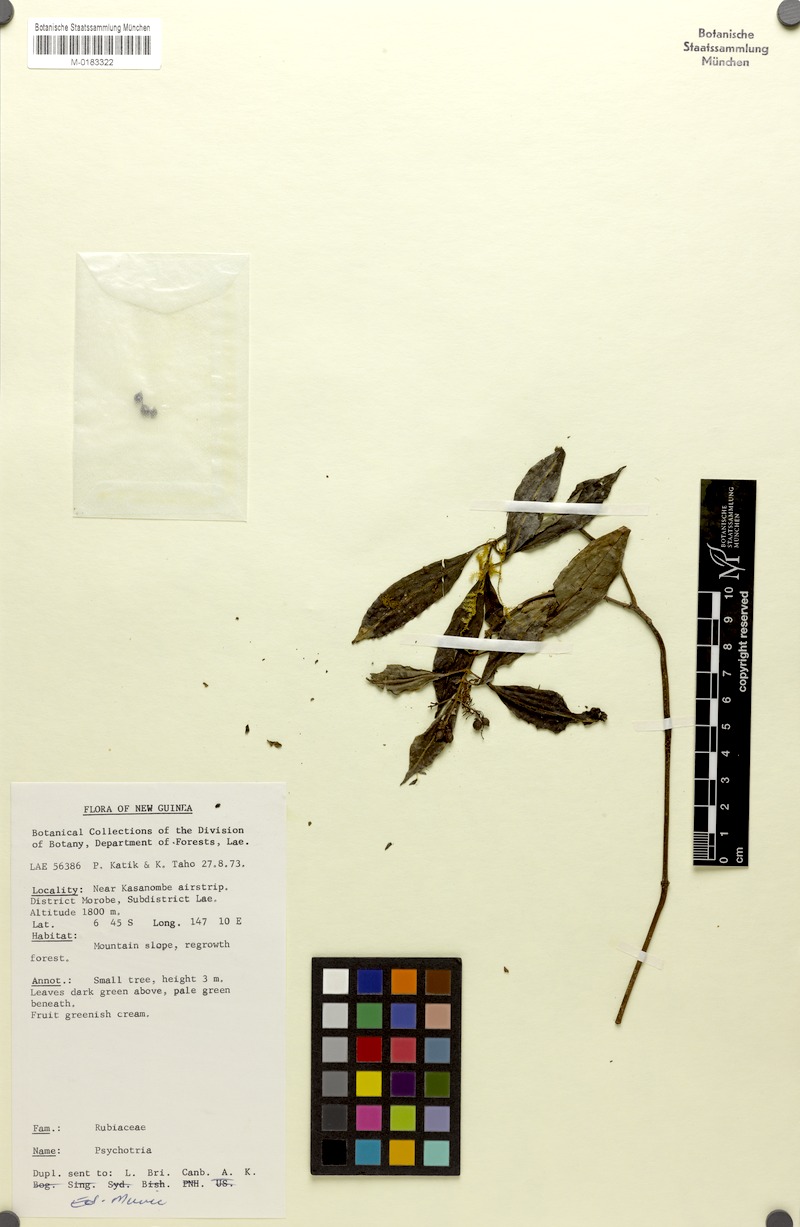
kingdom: Plantae
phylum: Tracheophyta
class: Magnoliopsida
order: Gentianales
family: Rubiaceae
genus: Psychotria
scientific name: Psychotria valetoniana
